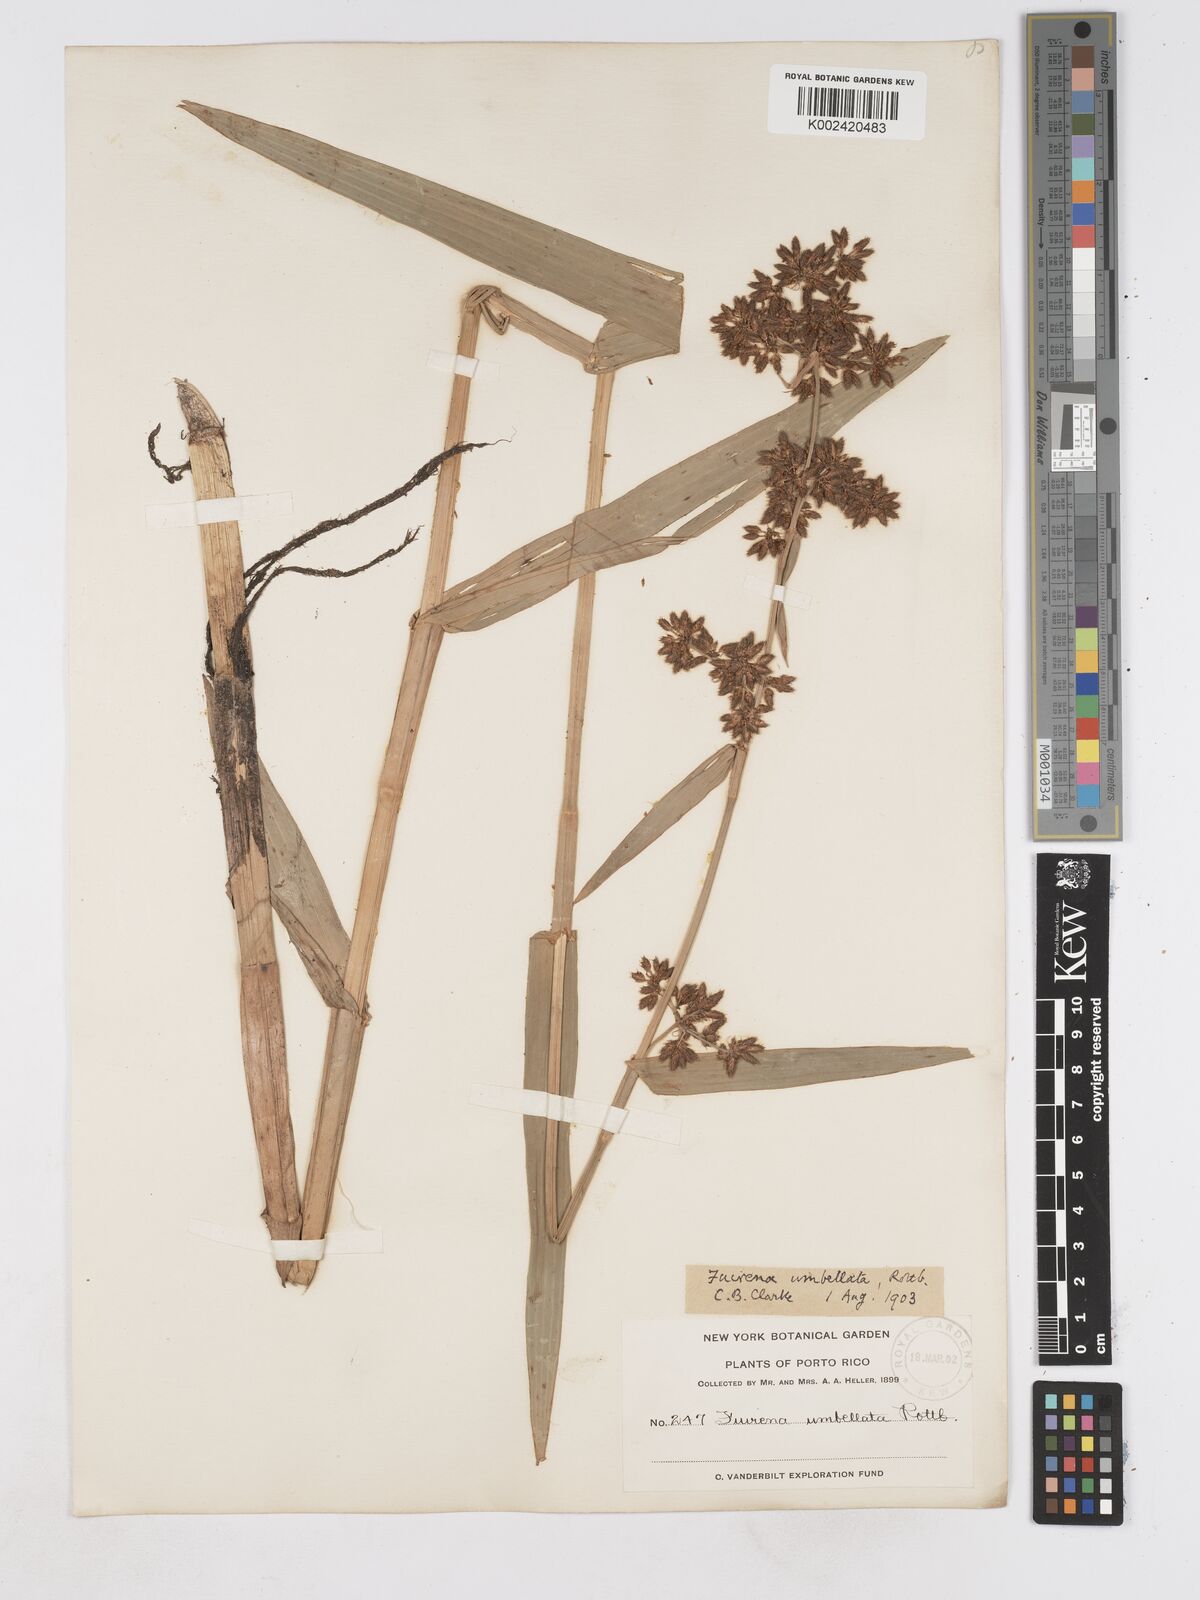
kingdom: Plantae
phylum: Tracheophyta
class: Liliopsida
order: Poales
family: Cyperaceae
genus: Fuirena
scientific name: Fuirena umbellata
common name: Yefen
